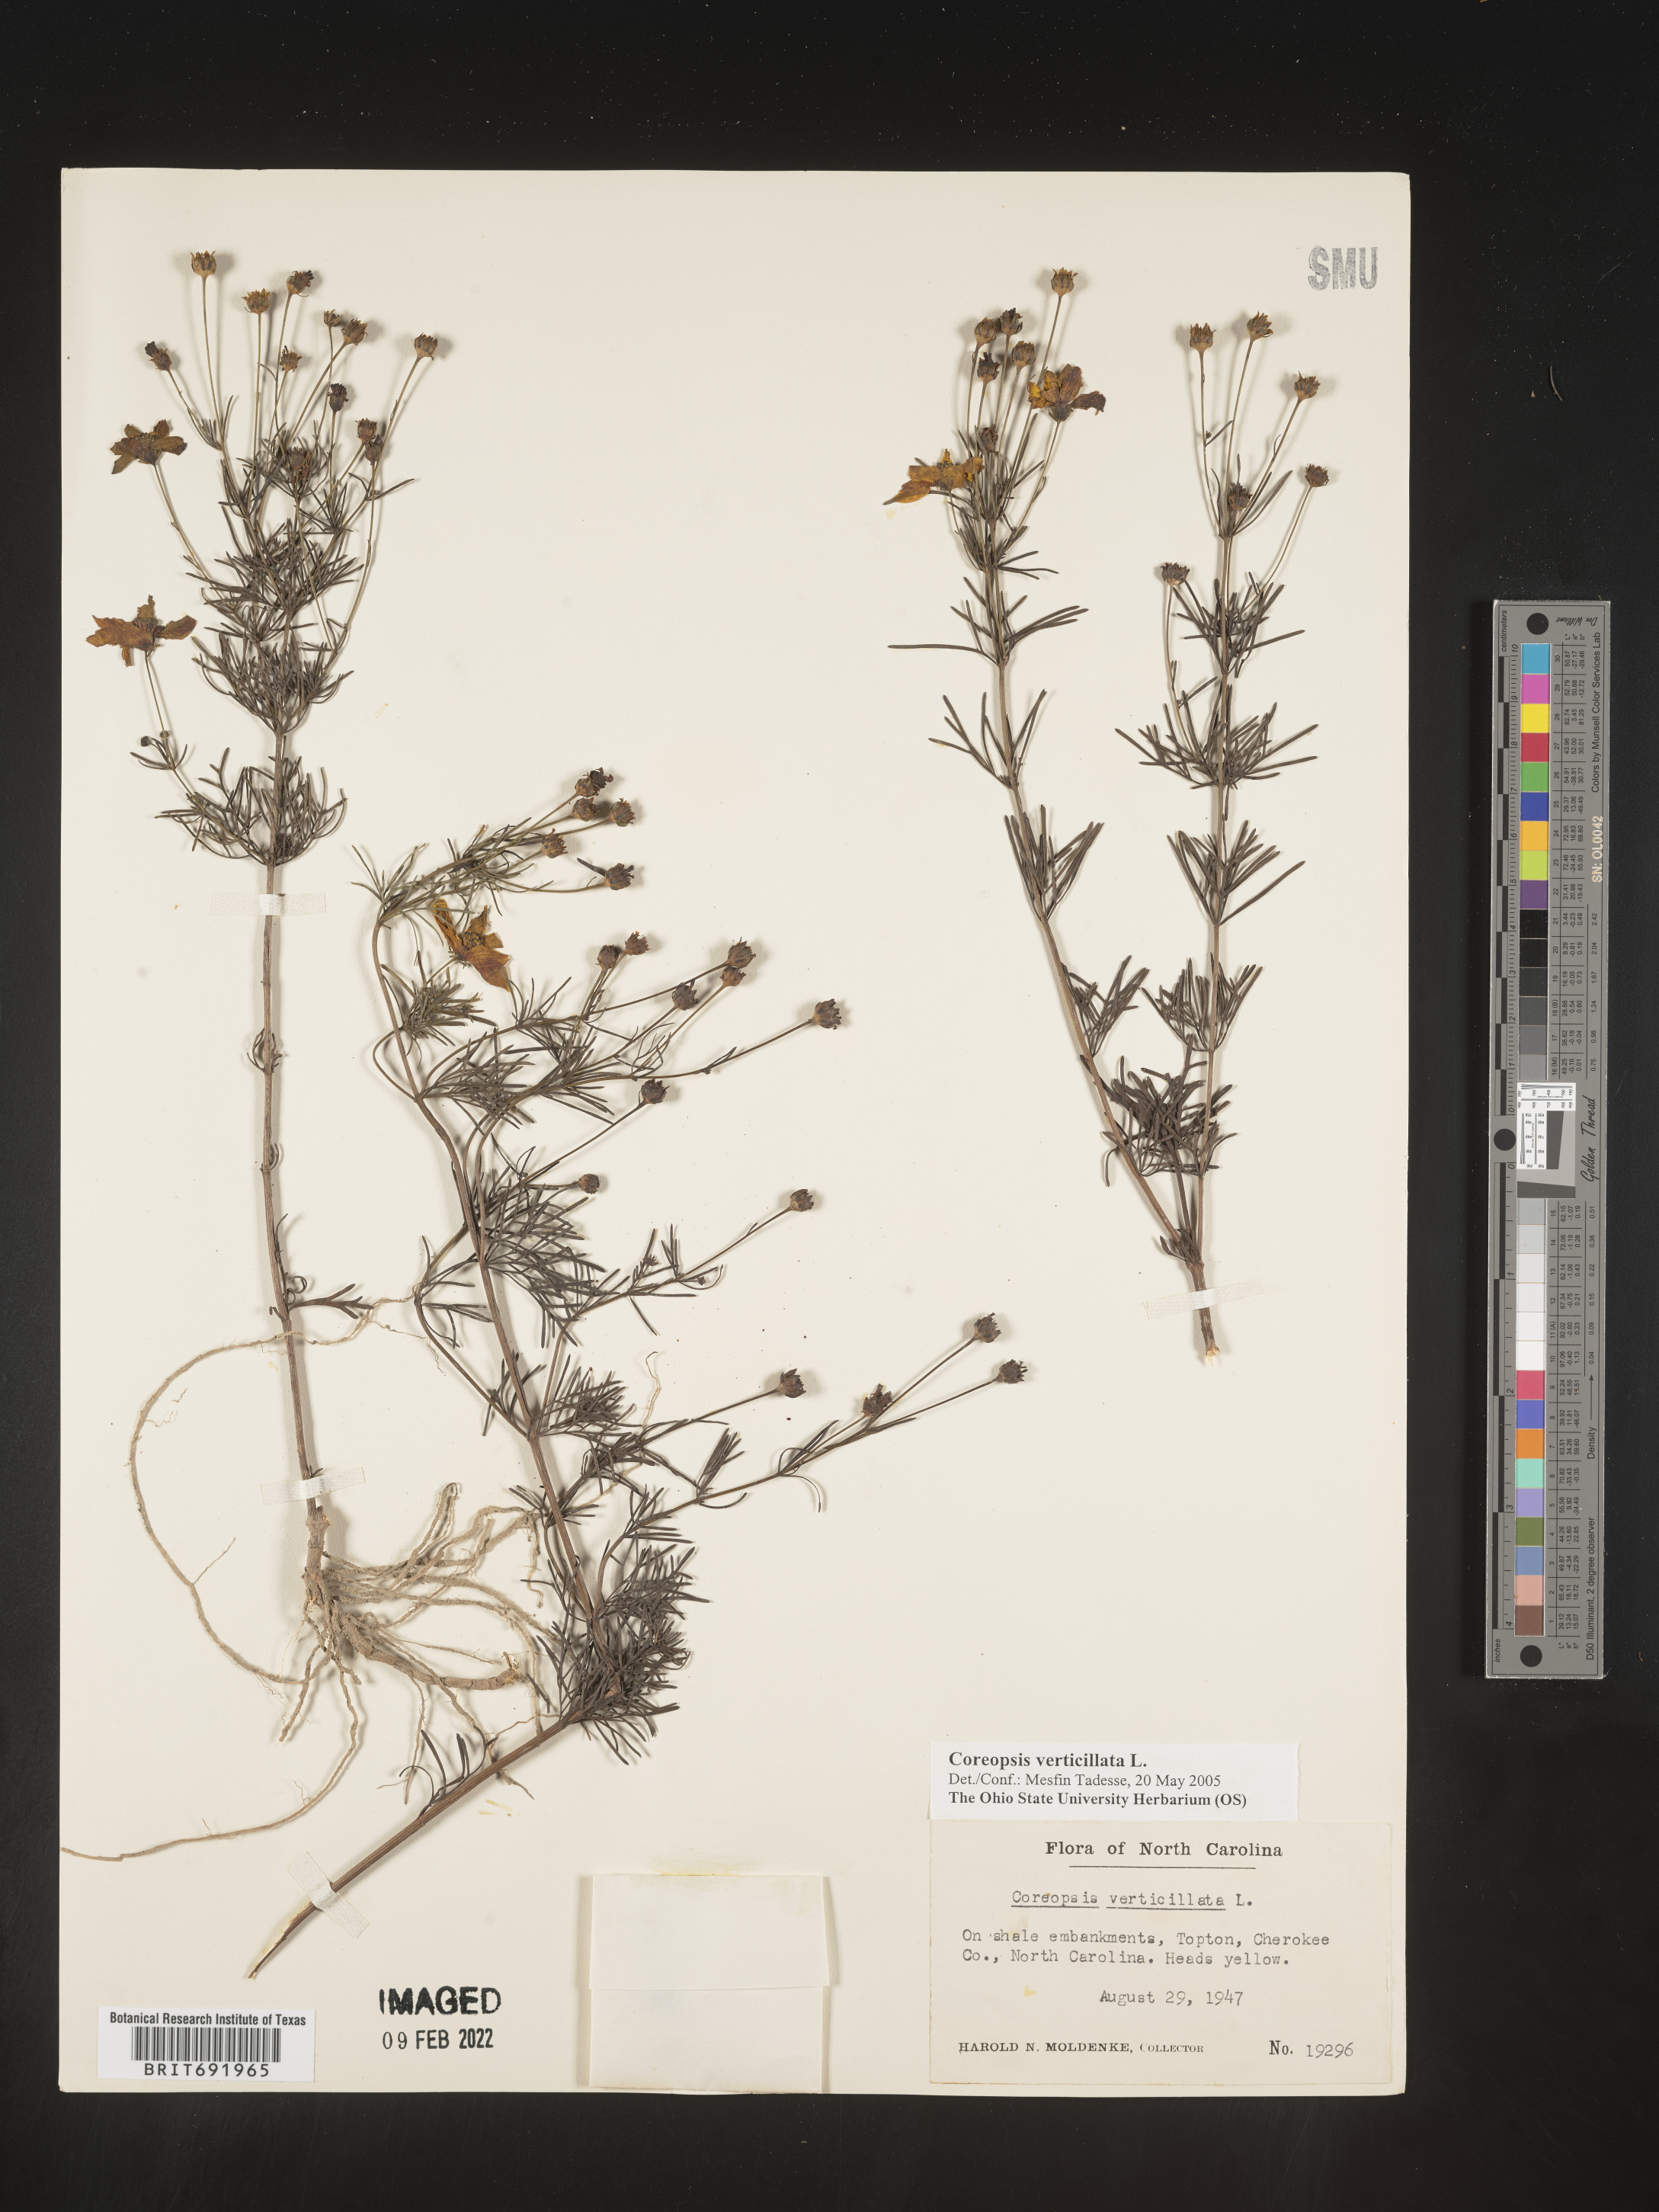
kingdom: Plantae
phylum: Tracheophyta
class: Magnoliopsida
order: Asterales
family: Asteraceae
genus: Coreopsis
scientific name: Coreopsis verticillata
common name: Whorled tickseed
